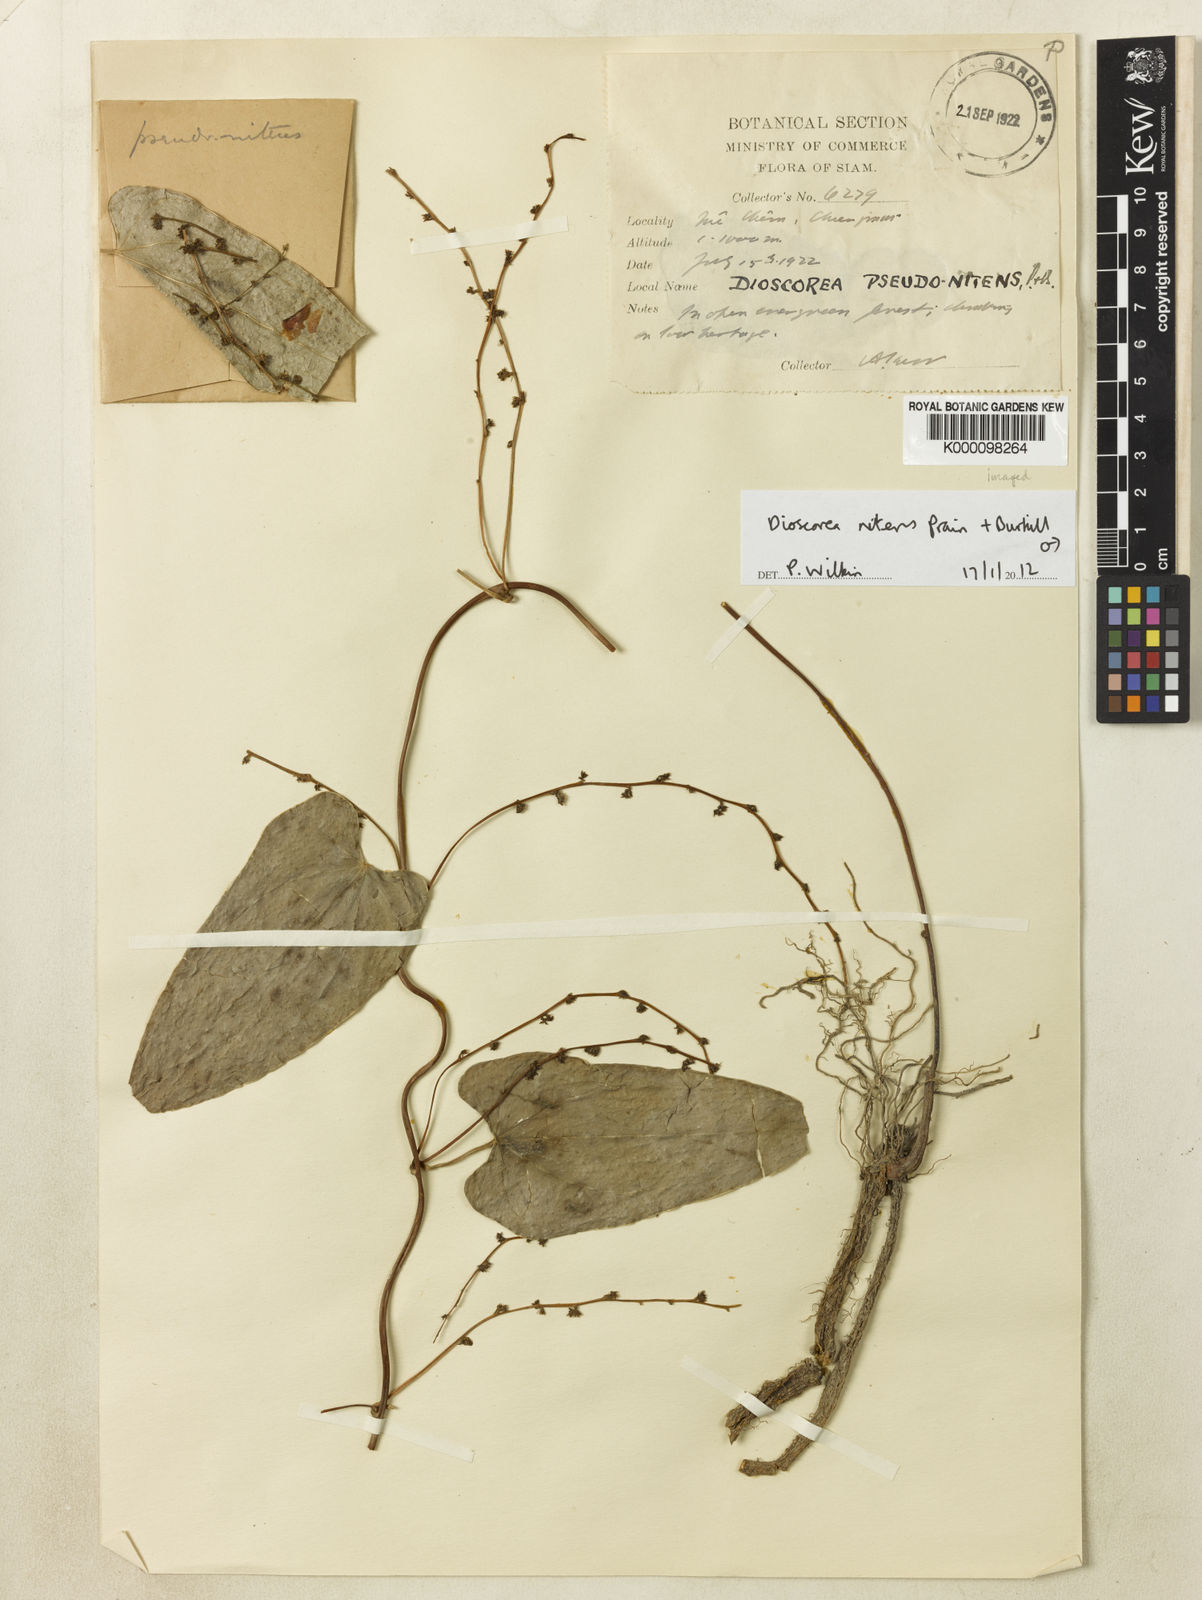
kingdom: Plantae
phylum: Tracheophyta
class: Liliopsida
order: Dioscoreales
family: Dioscoreaceae
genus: Dioscorea
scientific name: Dioscorea nitens
